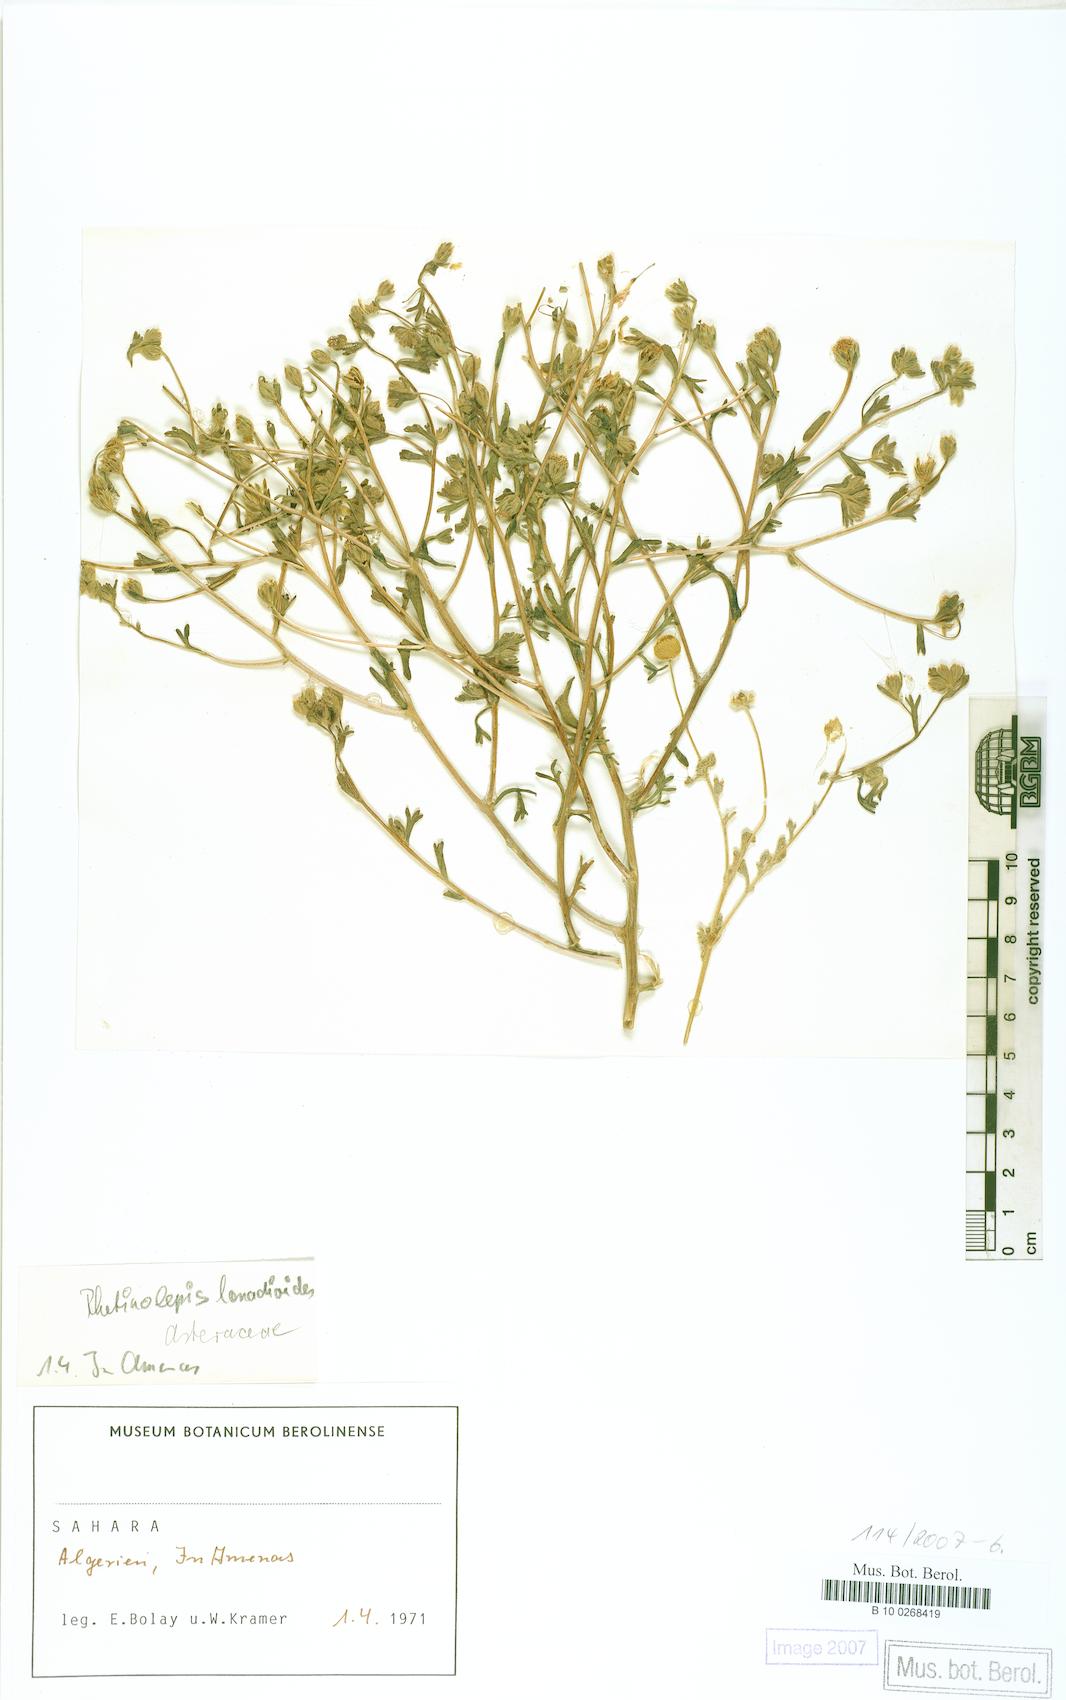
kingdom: Plantae
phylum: Tracheophyta
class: Magnoliopsida
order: Asterales
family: Asteraceae
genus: Rhetinolepis
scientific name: Rhetinolepis lonadioides
